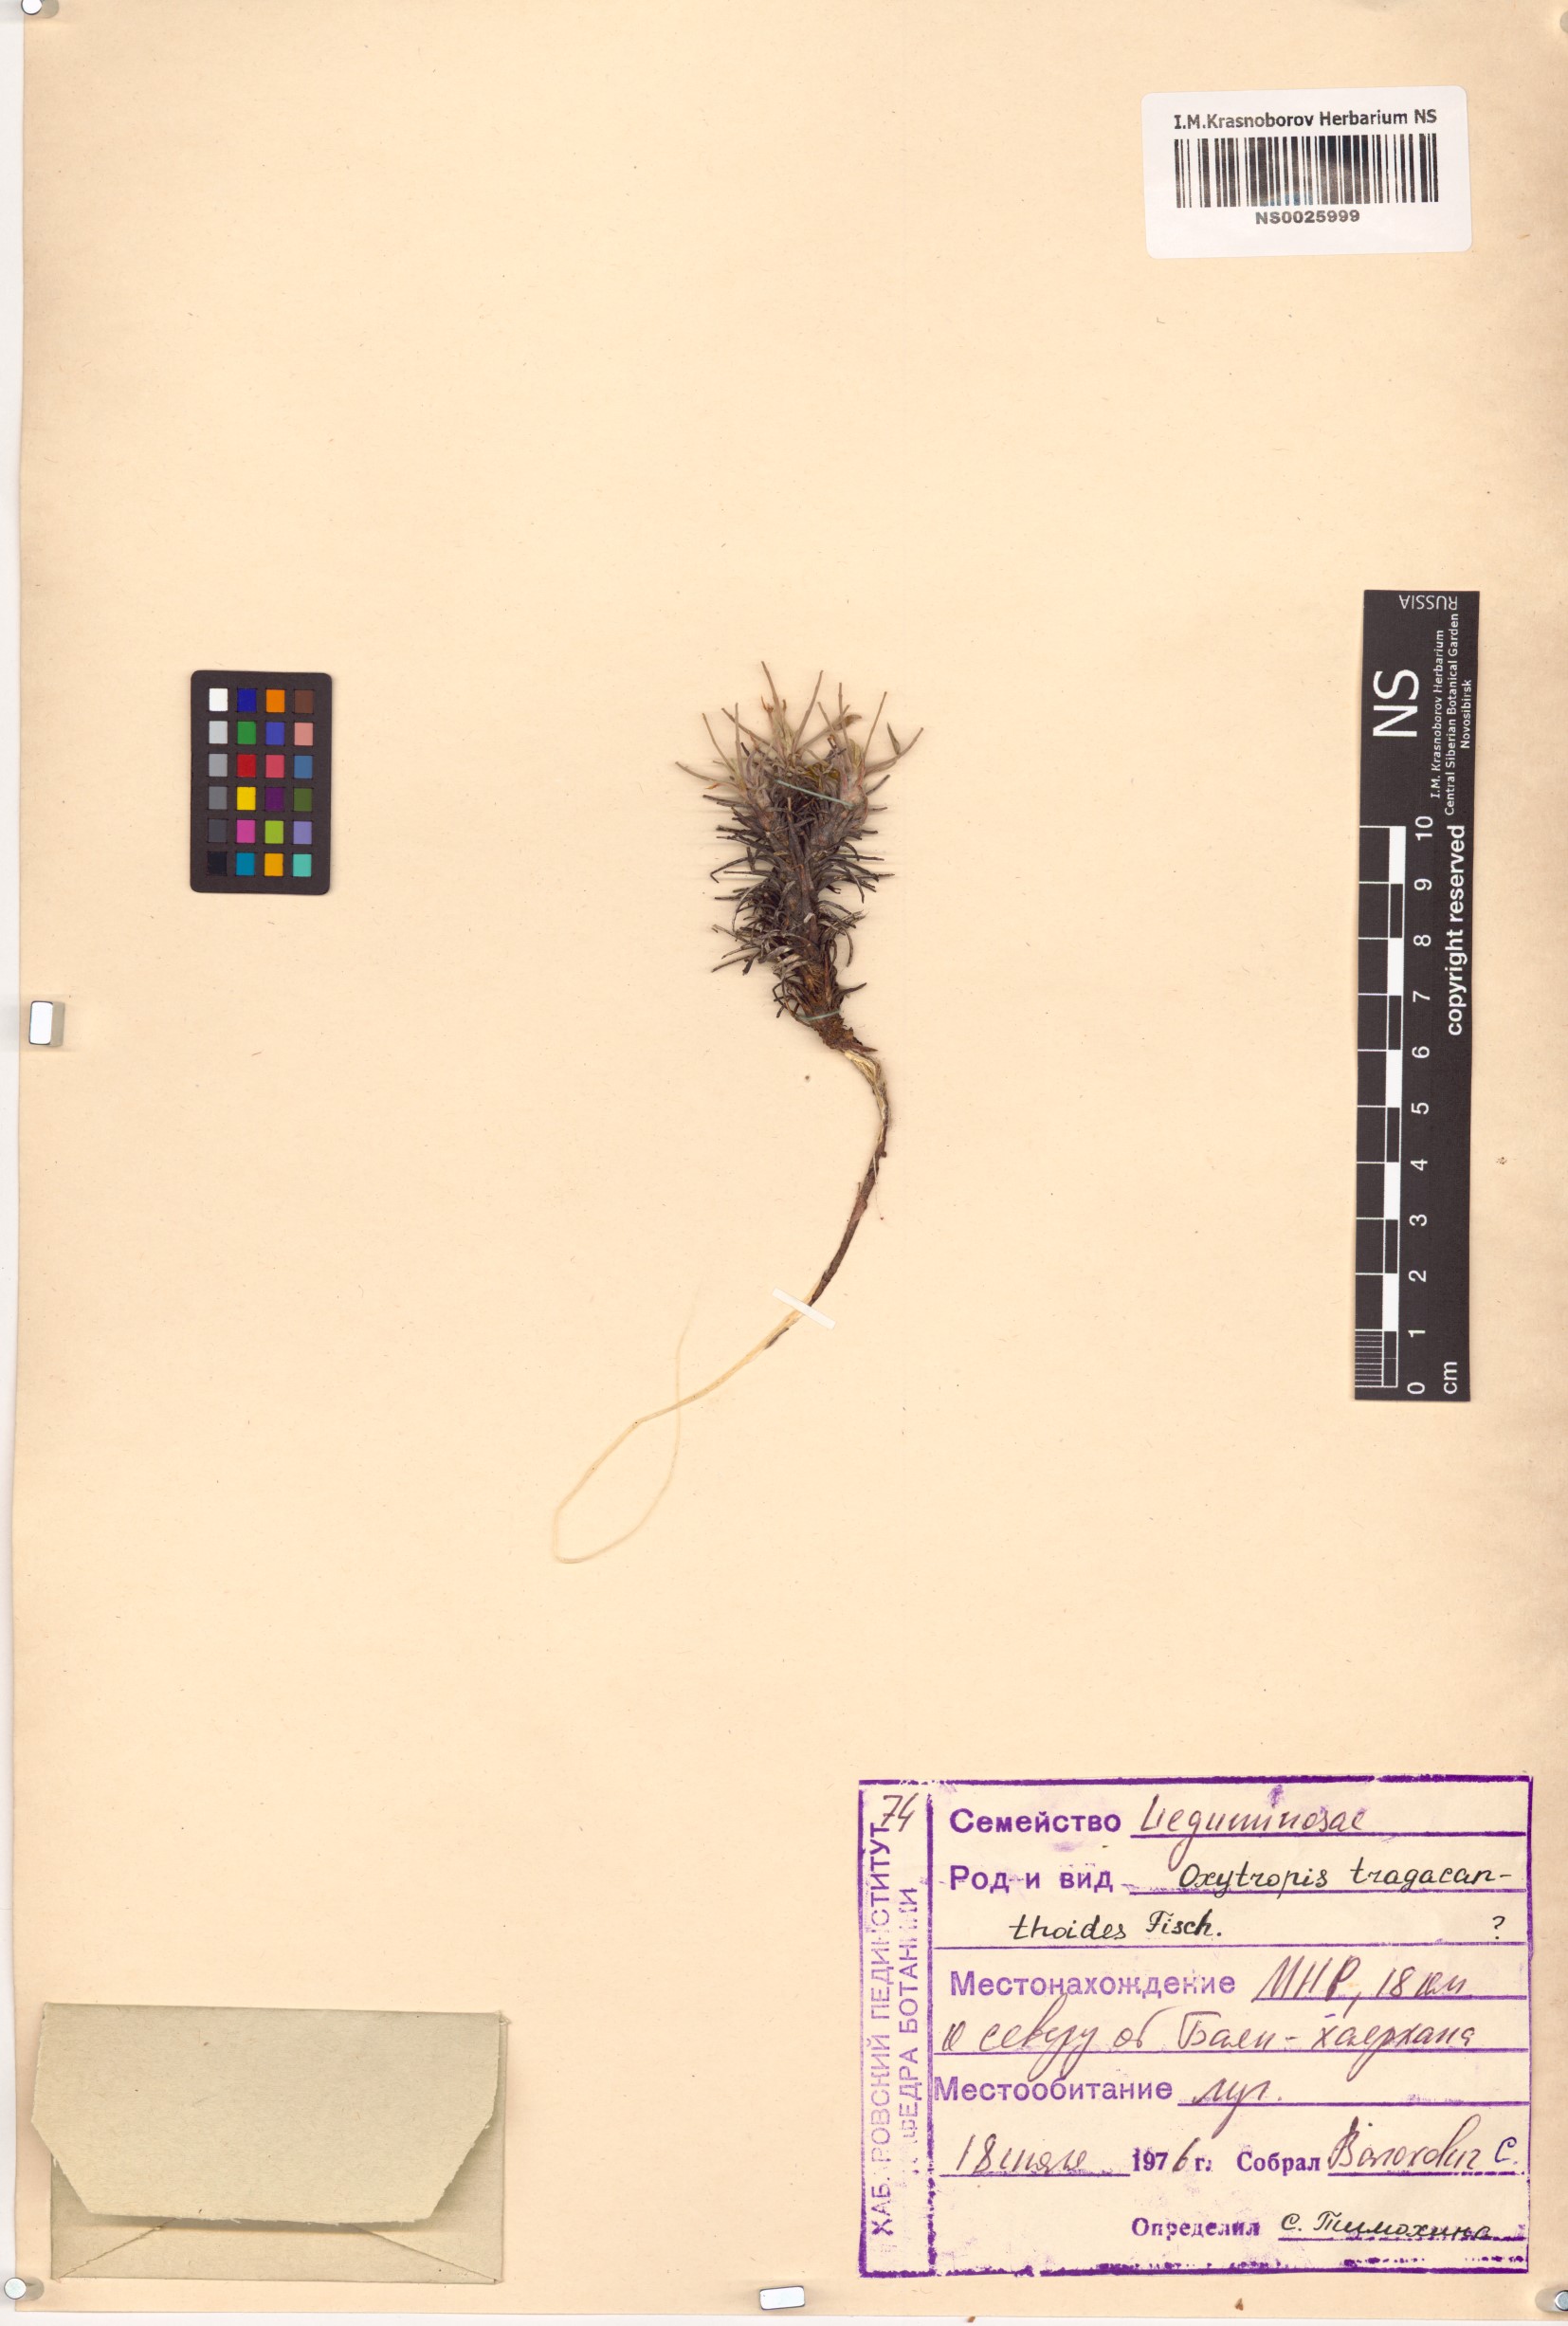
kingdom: Plantae
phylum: Tracheophyta
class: Magnoliopsida
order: Fabales
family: Fabaceae
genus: Oxytropis
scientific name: Oxytropis tragacanthoides
